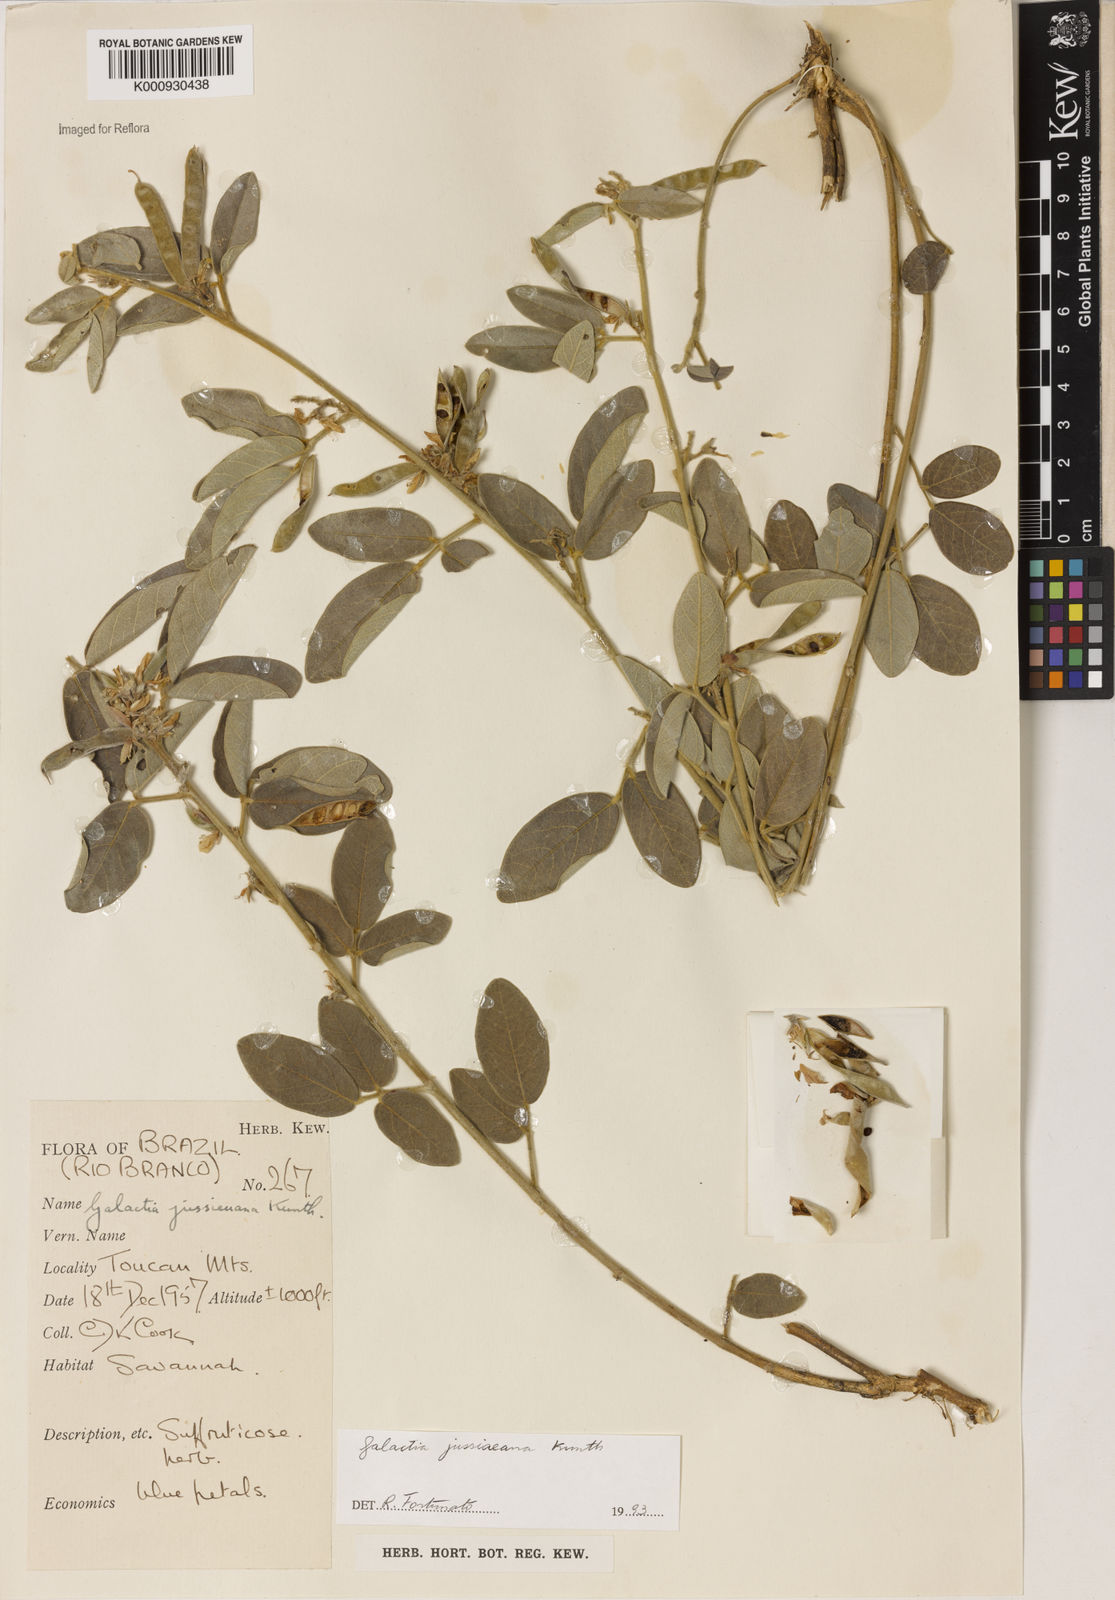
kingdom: Plantae
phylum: Tracheophyta
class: Magnoliopsida
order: Fabales
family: Fabaceae
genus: Galactia
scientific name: Galactia jussiaeana
